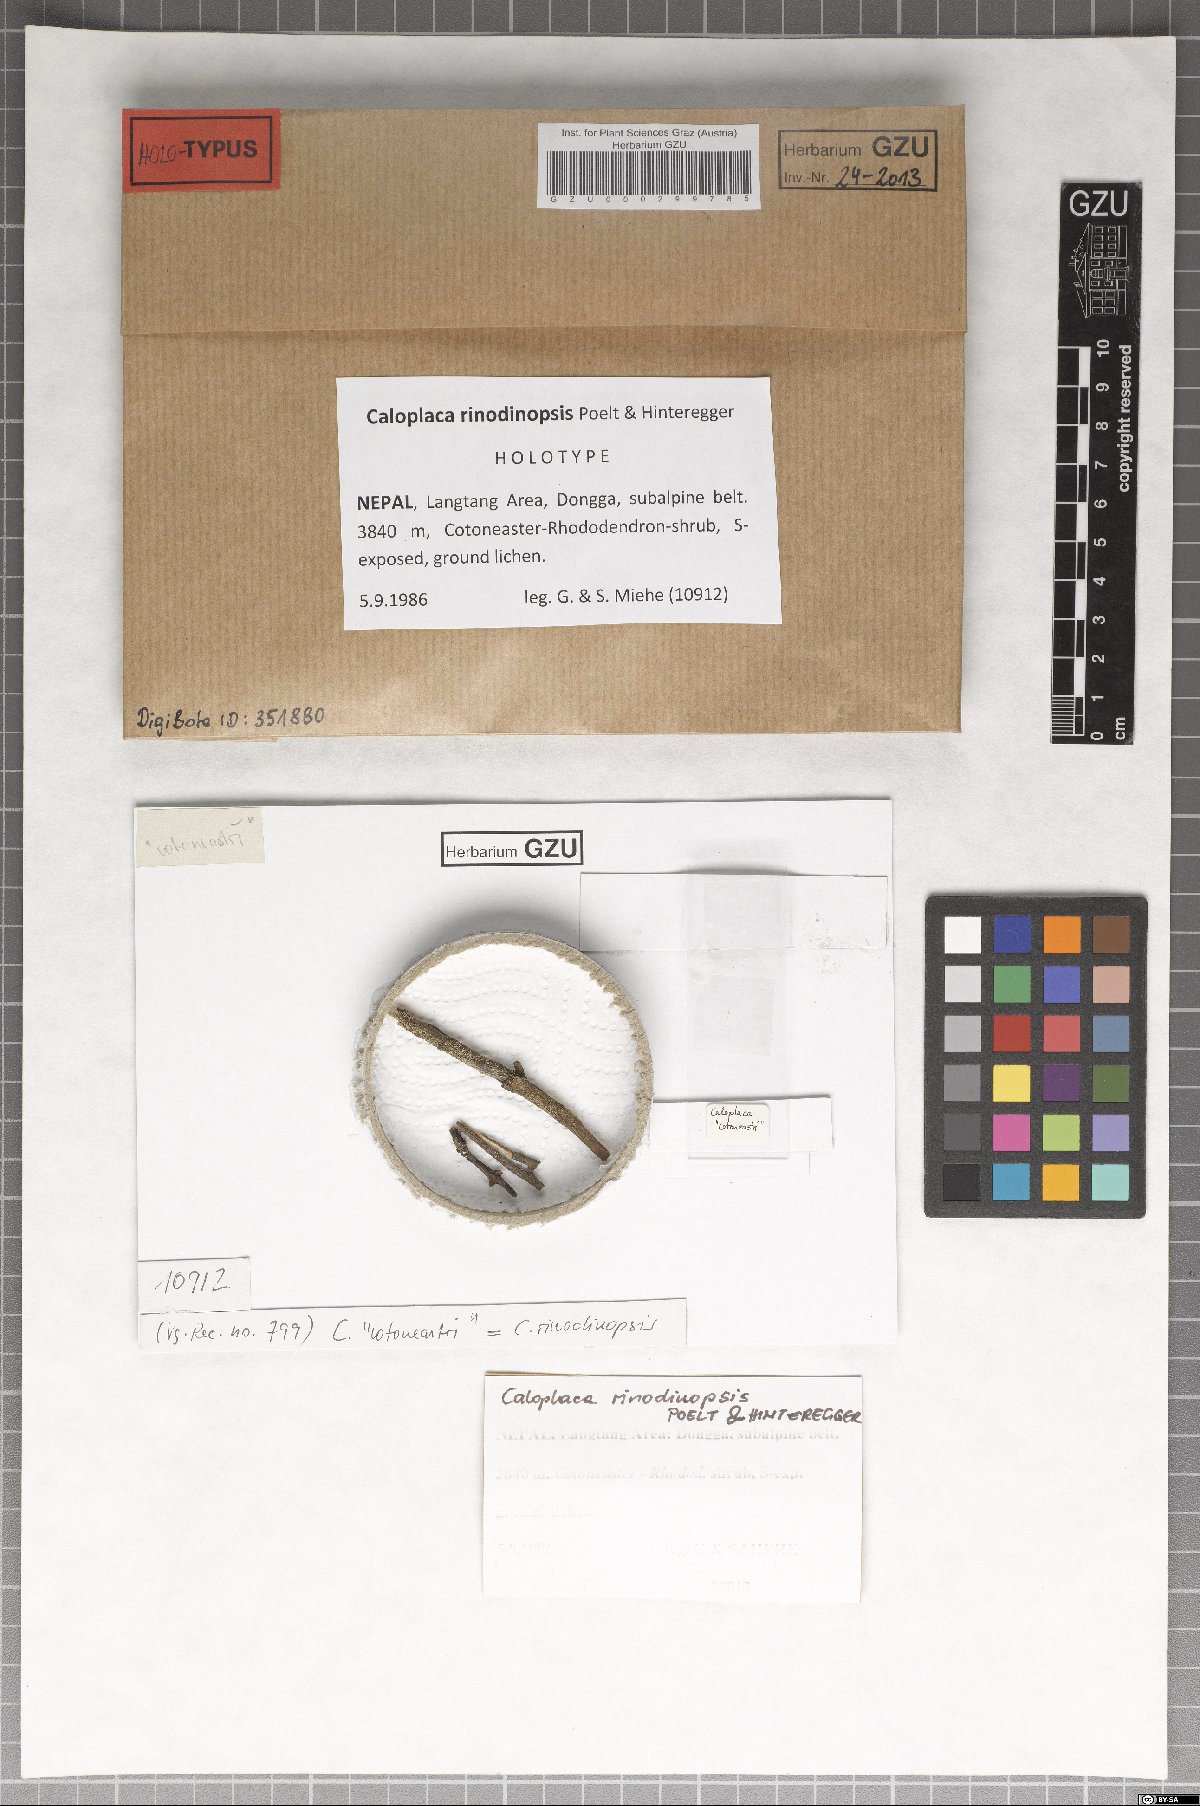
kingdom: Fungi
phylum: Ascomycota
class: Lecanoromycetes
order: Teloschistales
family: Teloschistaceae
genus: Caloplaca
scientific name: Caloplaca
